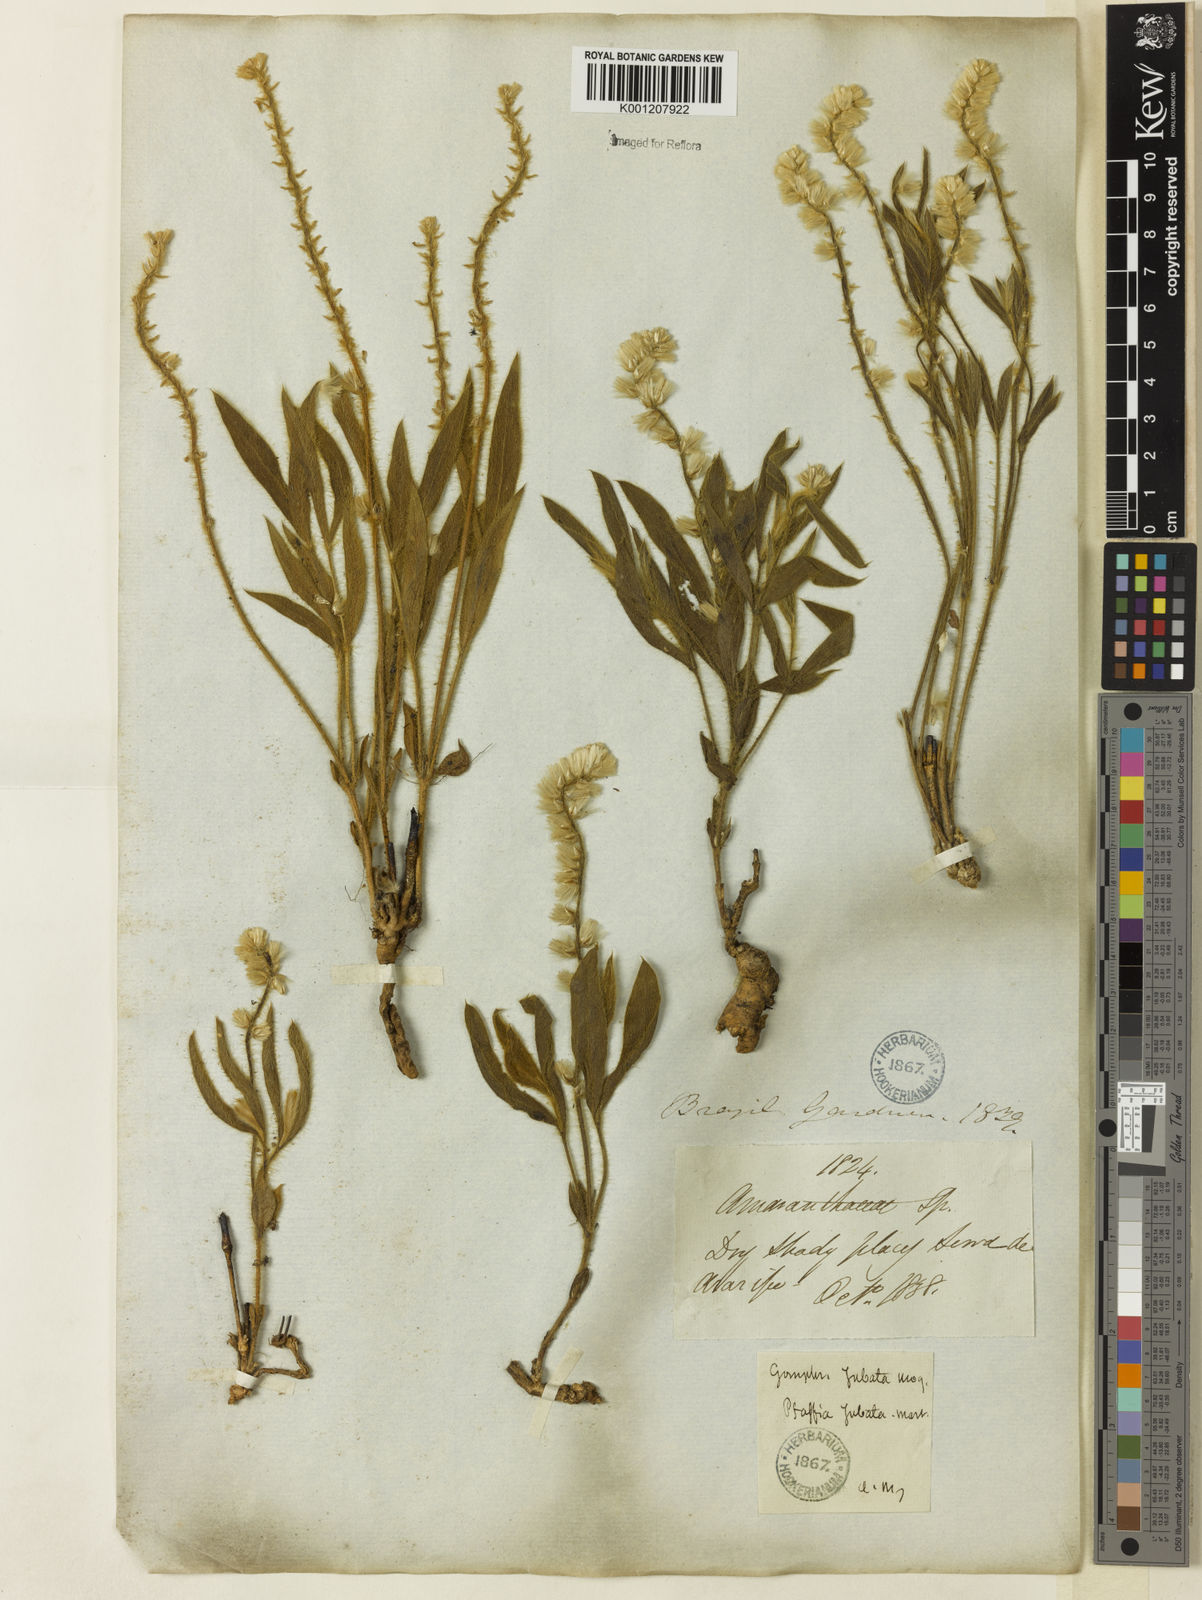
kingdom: Plantae
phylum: Tracheophyta
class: Magnoliopsida
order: Caryophyllales
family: Amaranthaceae
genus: Pfaffia
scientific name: Pfaffia jubata
